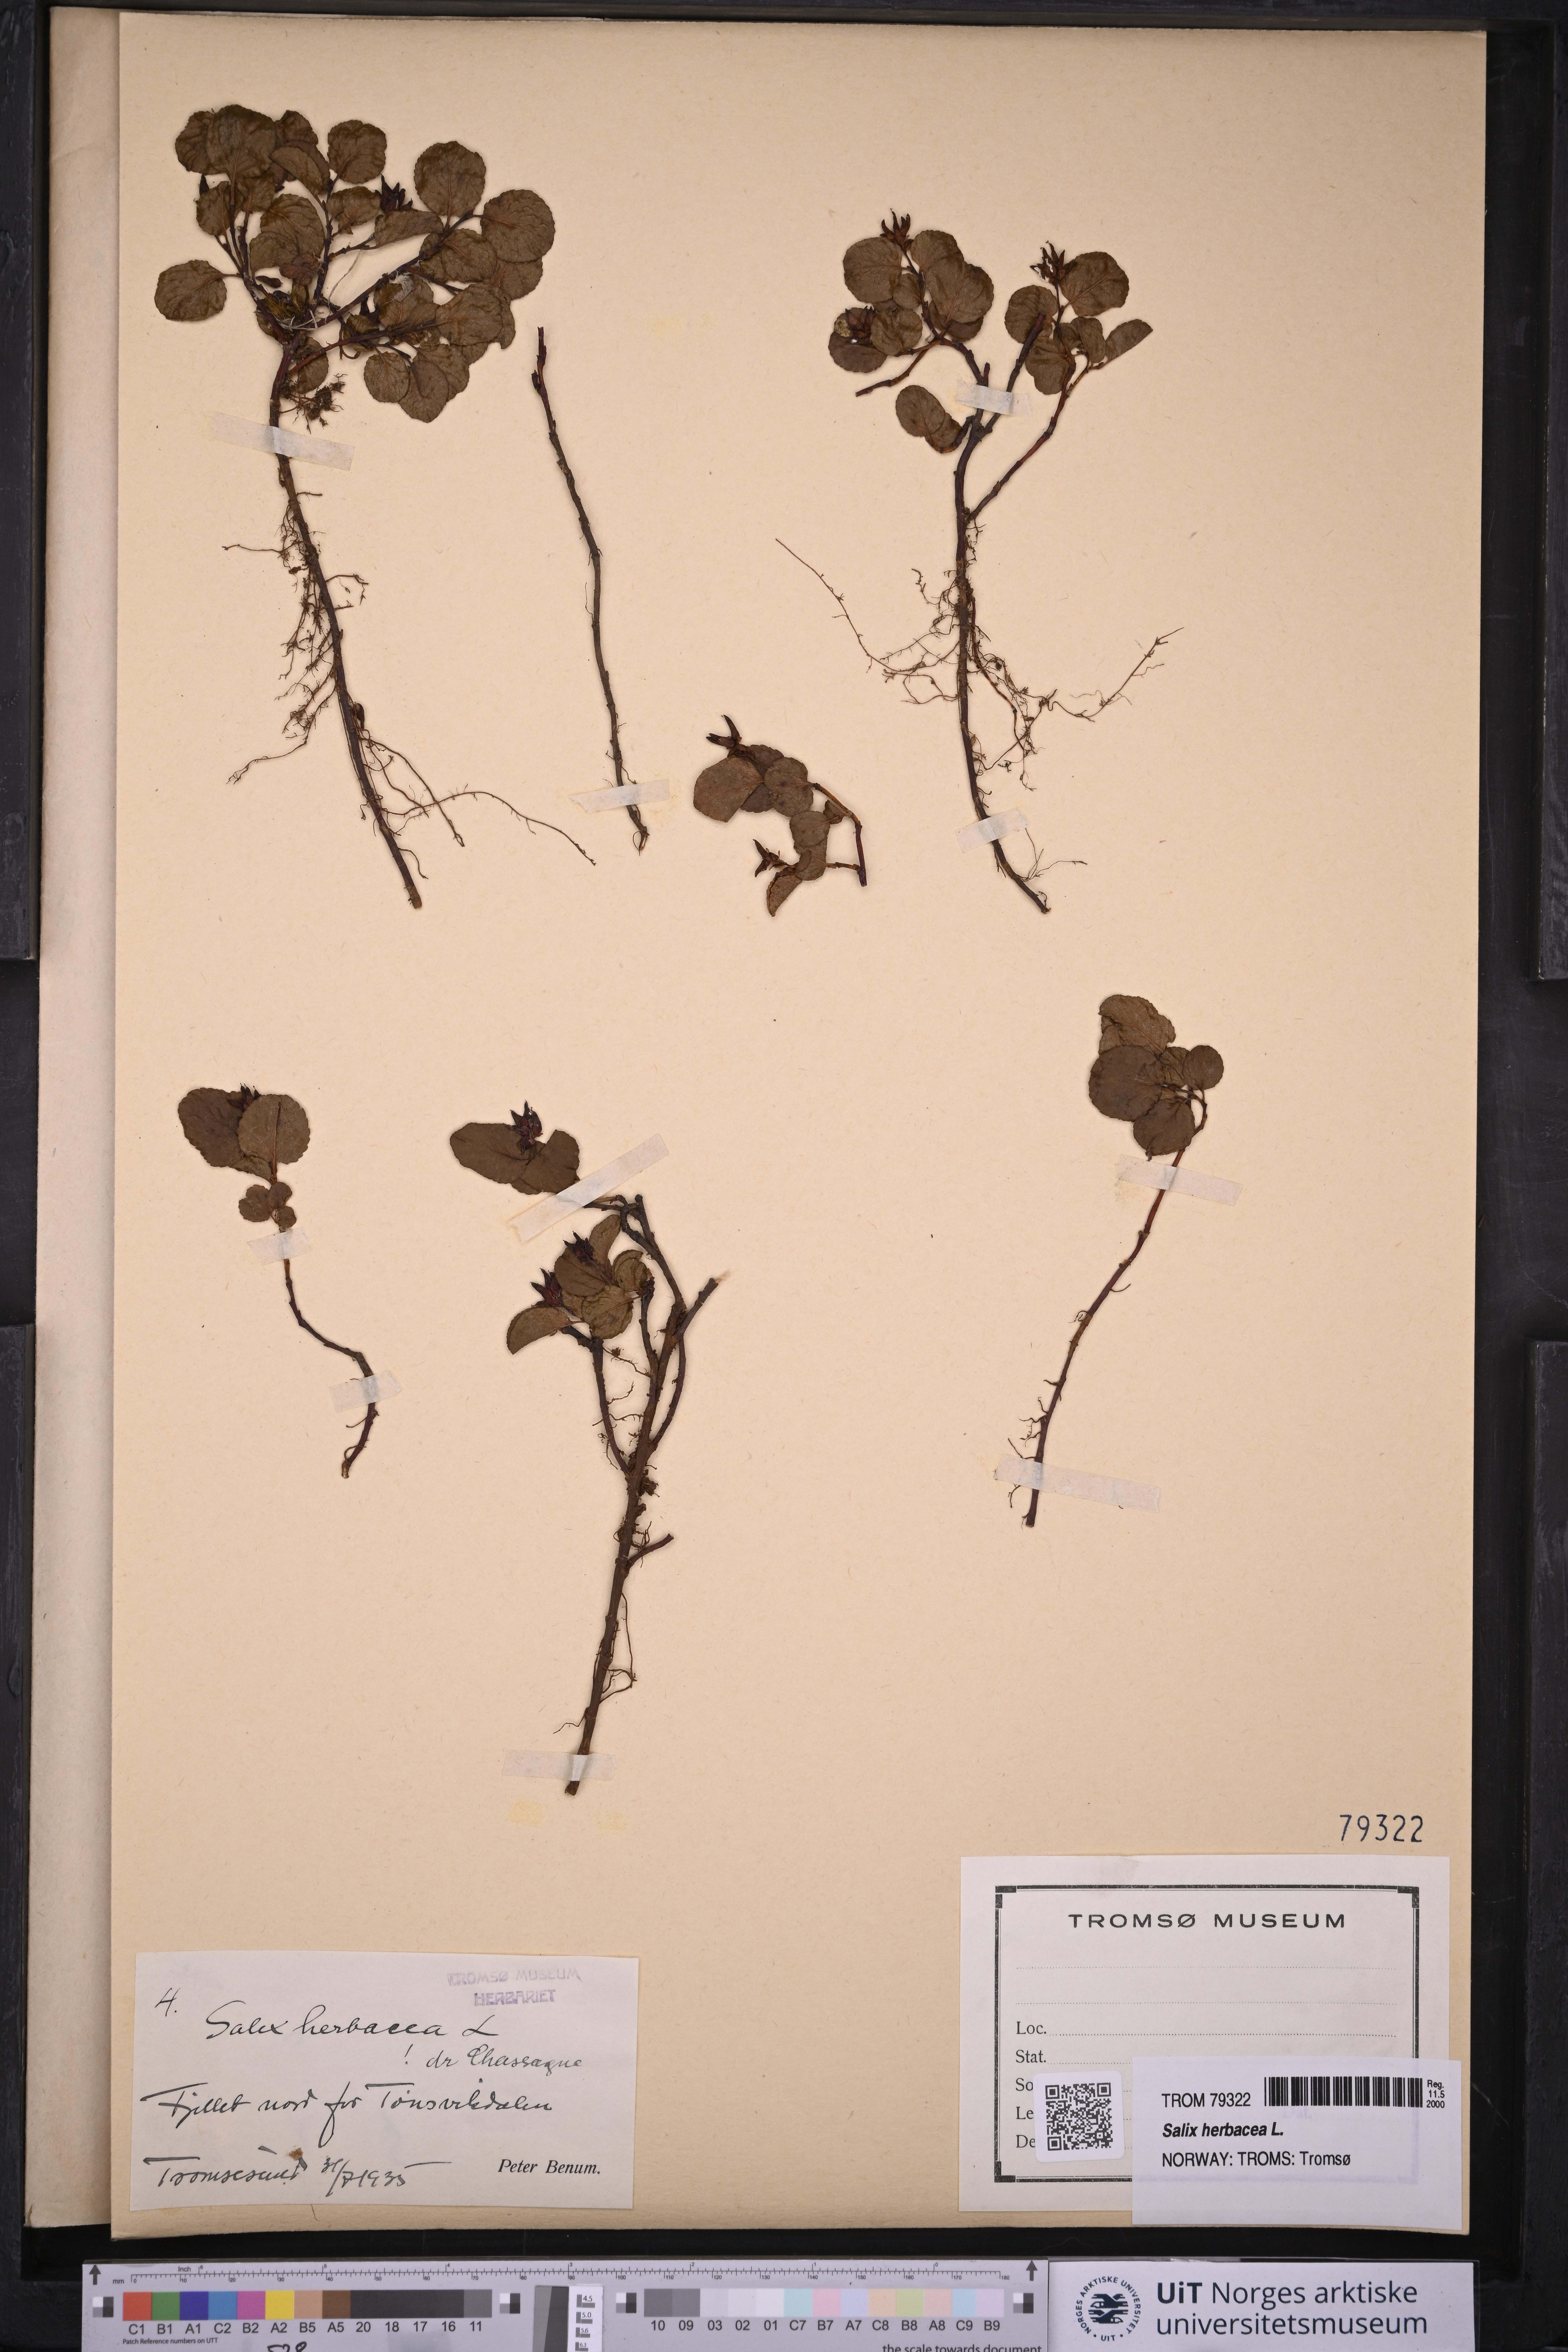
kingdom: Plantae
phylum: Tracheophyta
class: Magnoliopsida
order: Malpighiales
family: Salicaceae
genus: Salix
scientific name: Salix herbacea
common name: Dwarf willow
